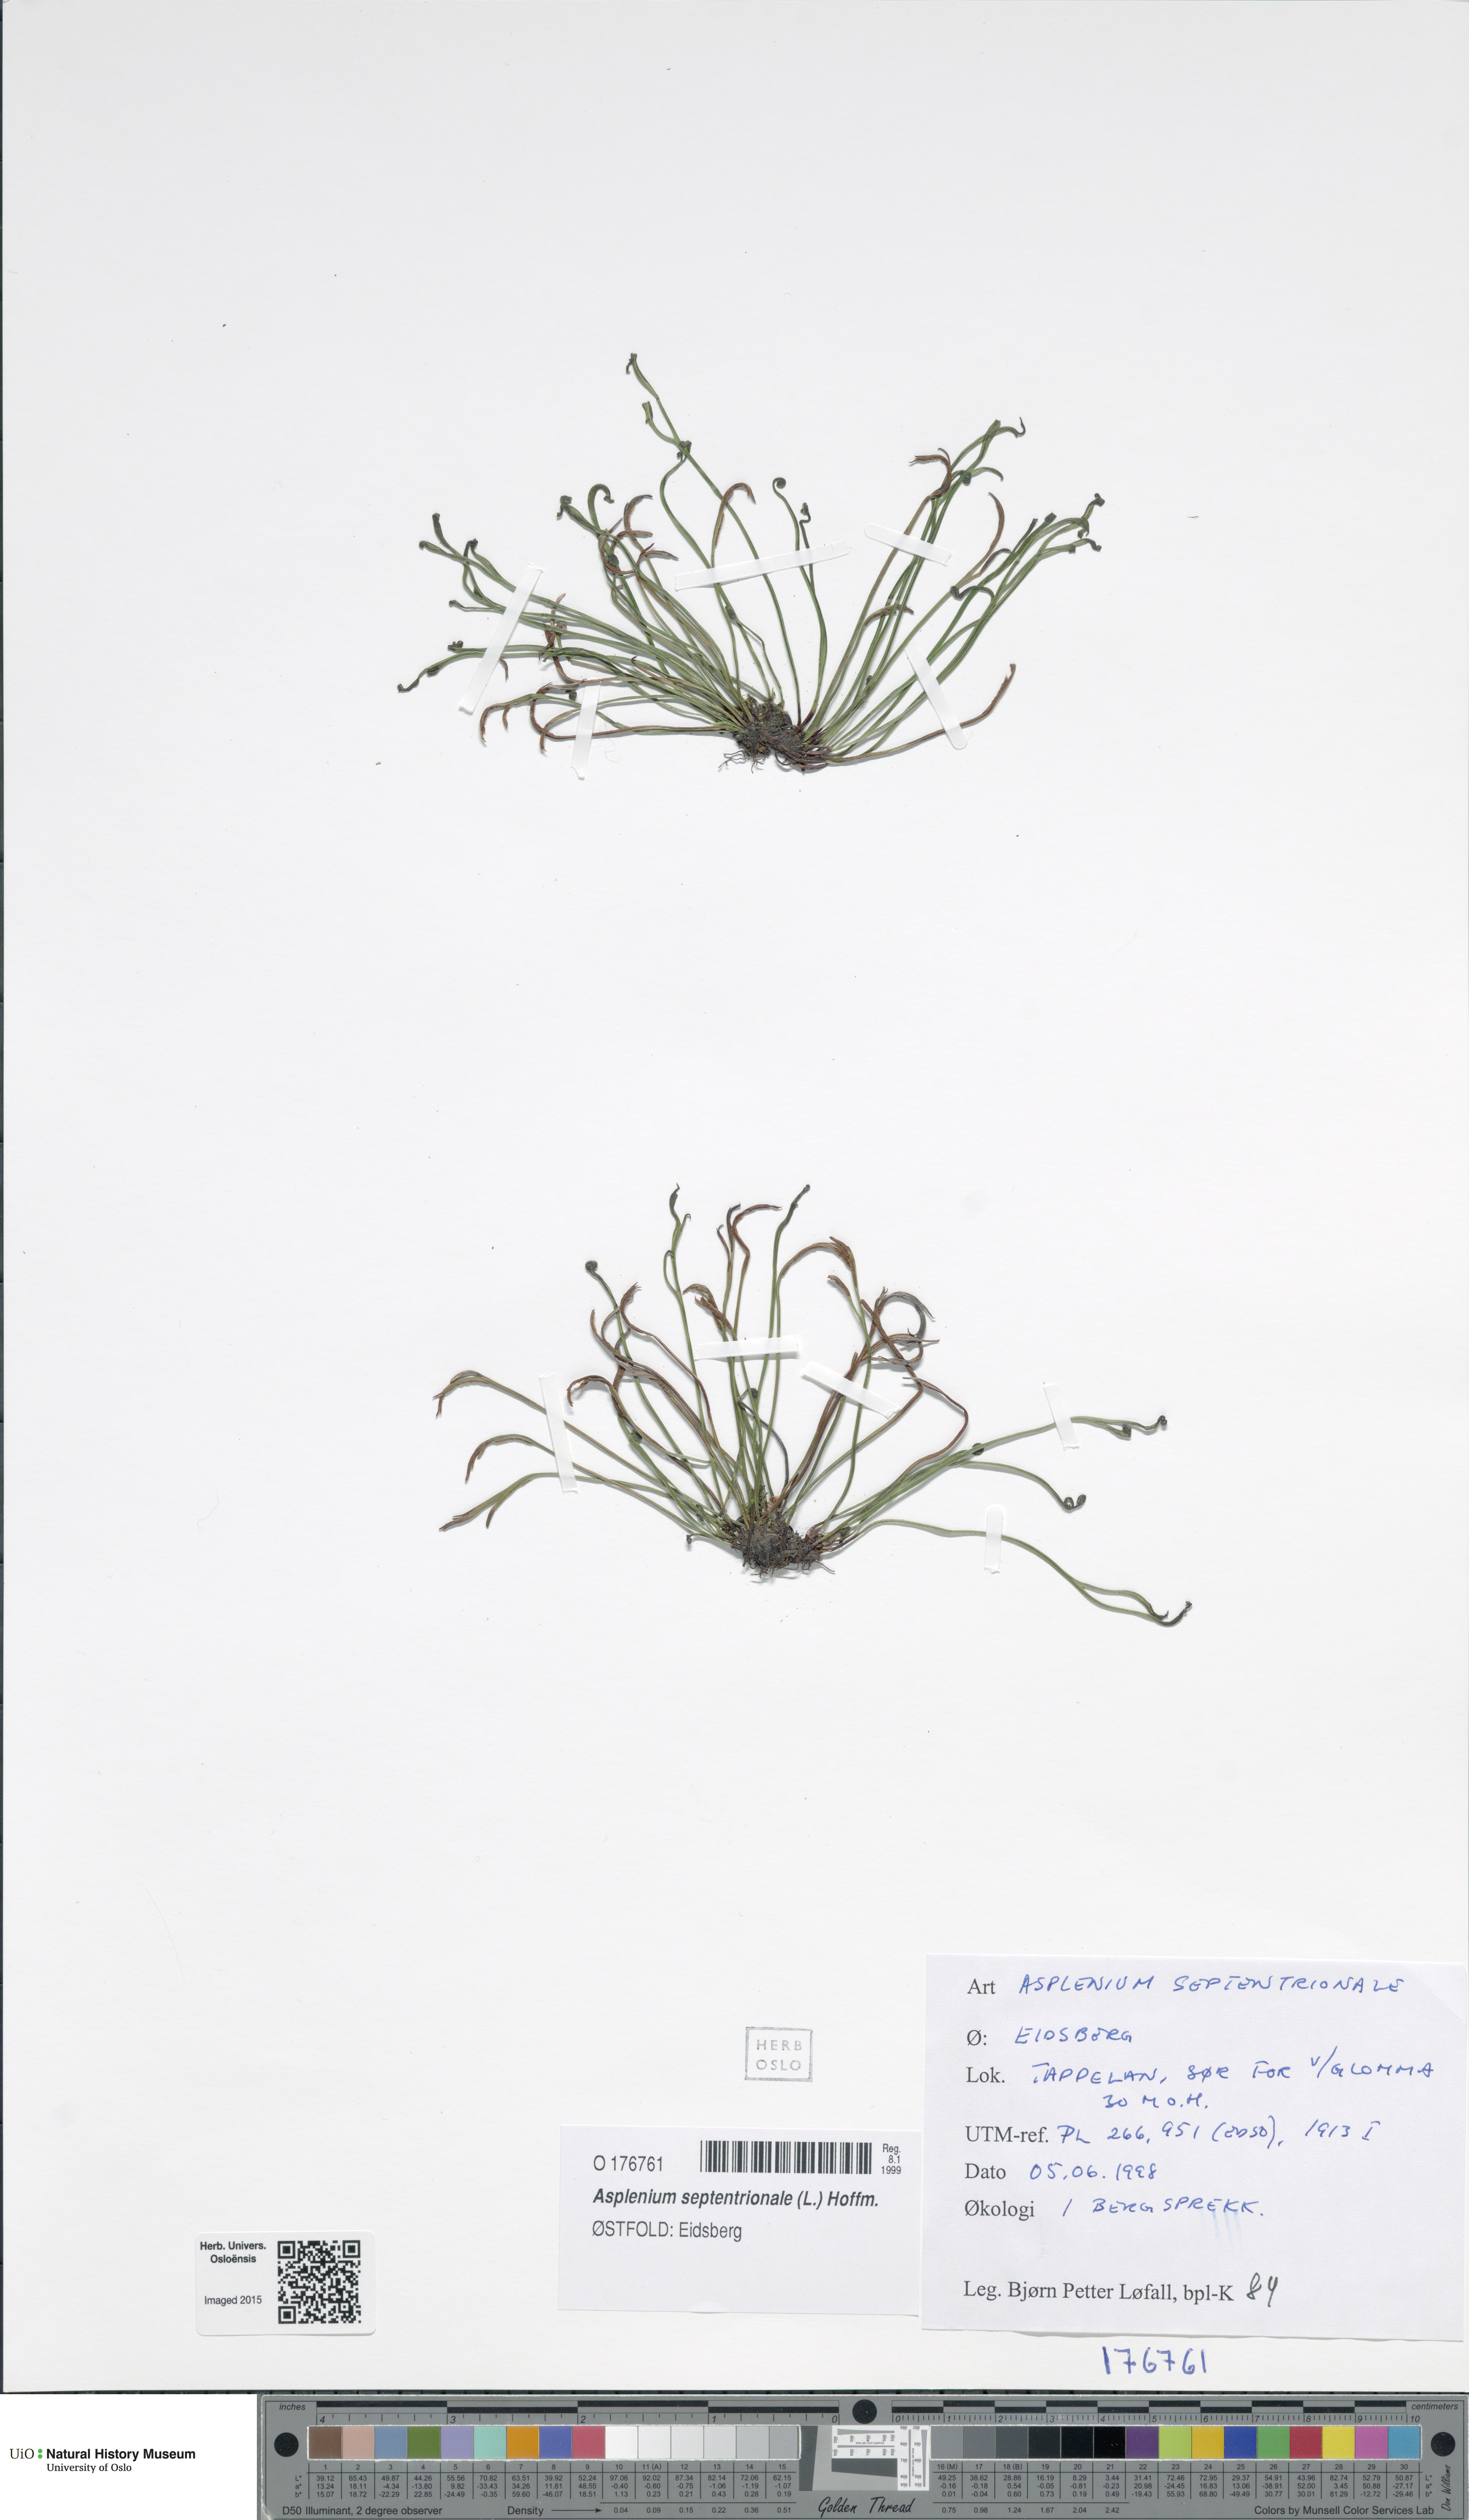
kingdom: Plantae
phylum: Tracheophyta
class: Polypodiopsida
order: Polypodiales
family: Aspleniaceae
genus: Asplenium
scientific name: Asplenium septentrionale
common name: Forked spleenwort
